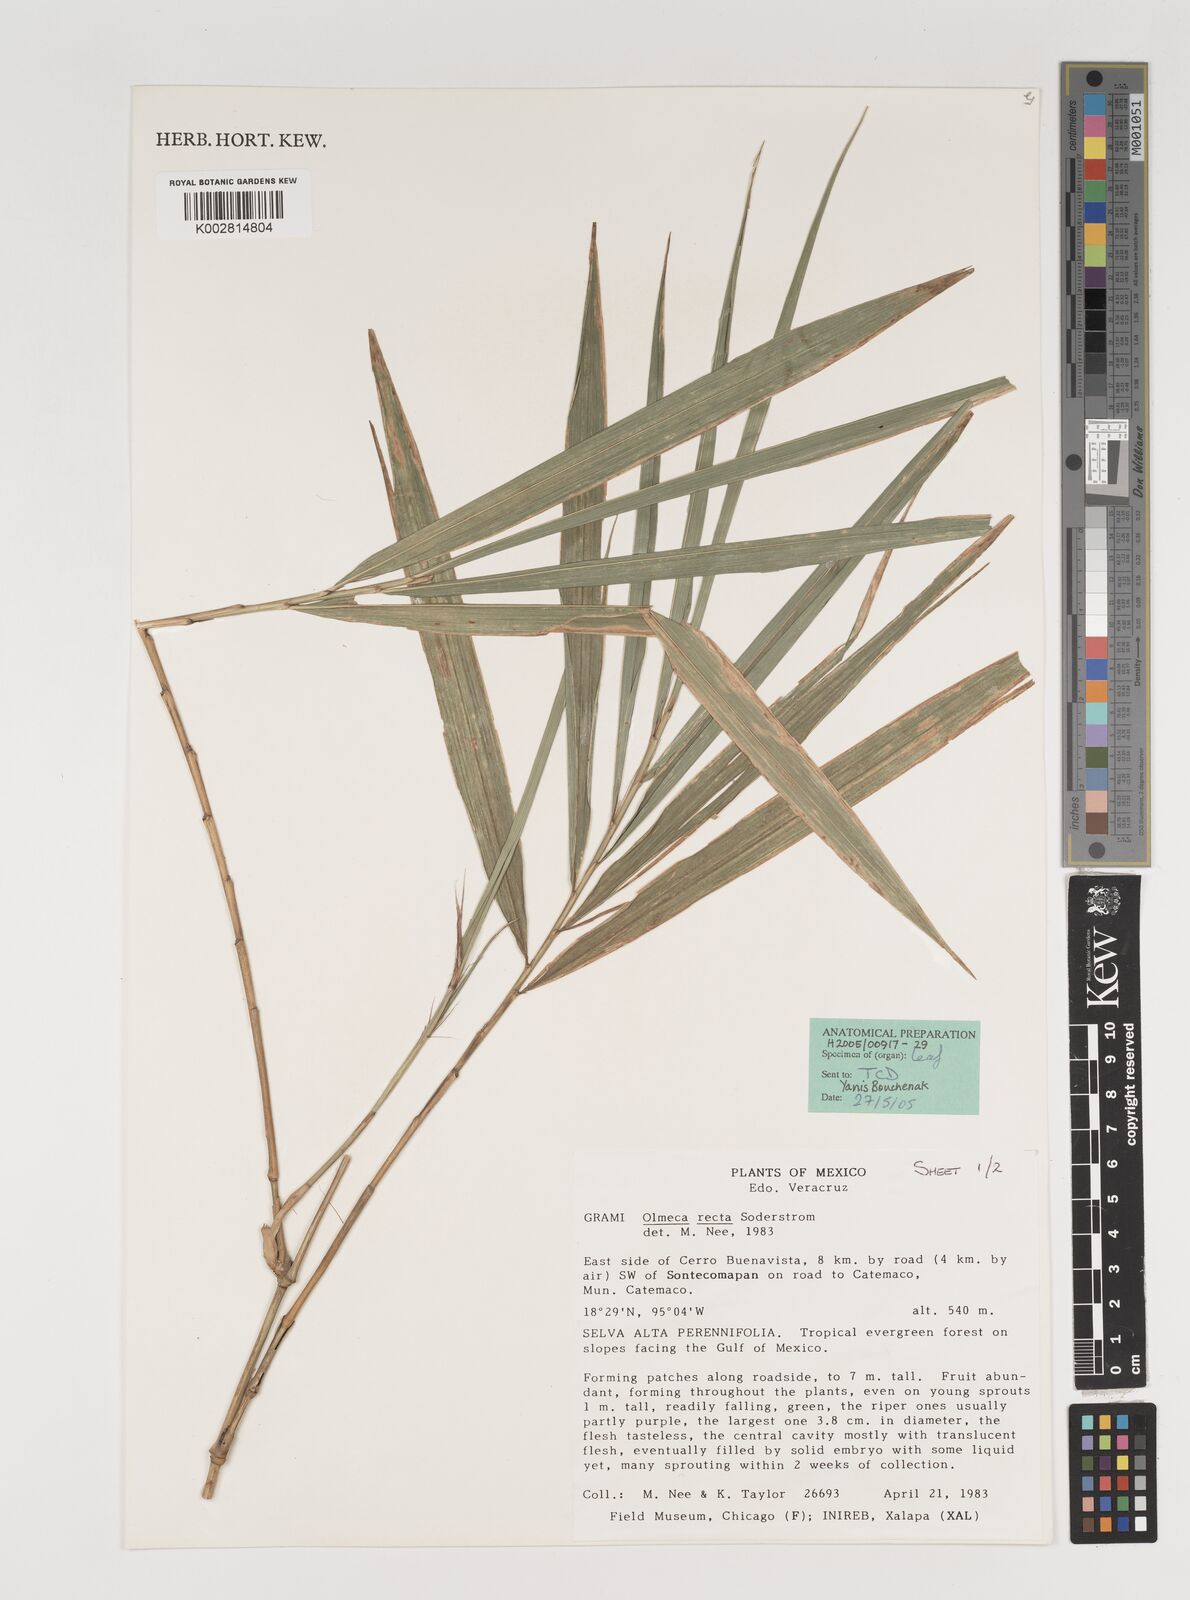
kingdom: Plantae
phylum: Tracheophyta
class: Liliopsida
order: Poales
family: Poaceae
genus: Olmeca
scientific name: Olmeca recta
